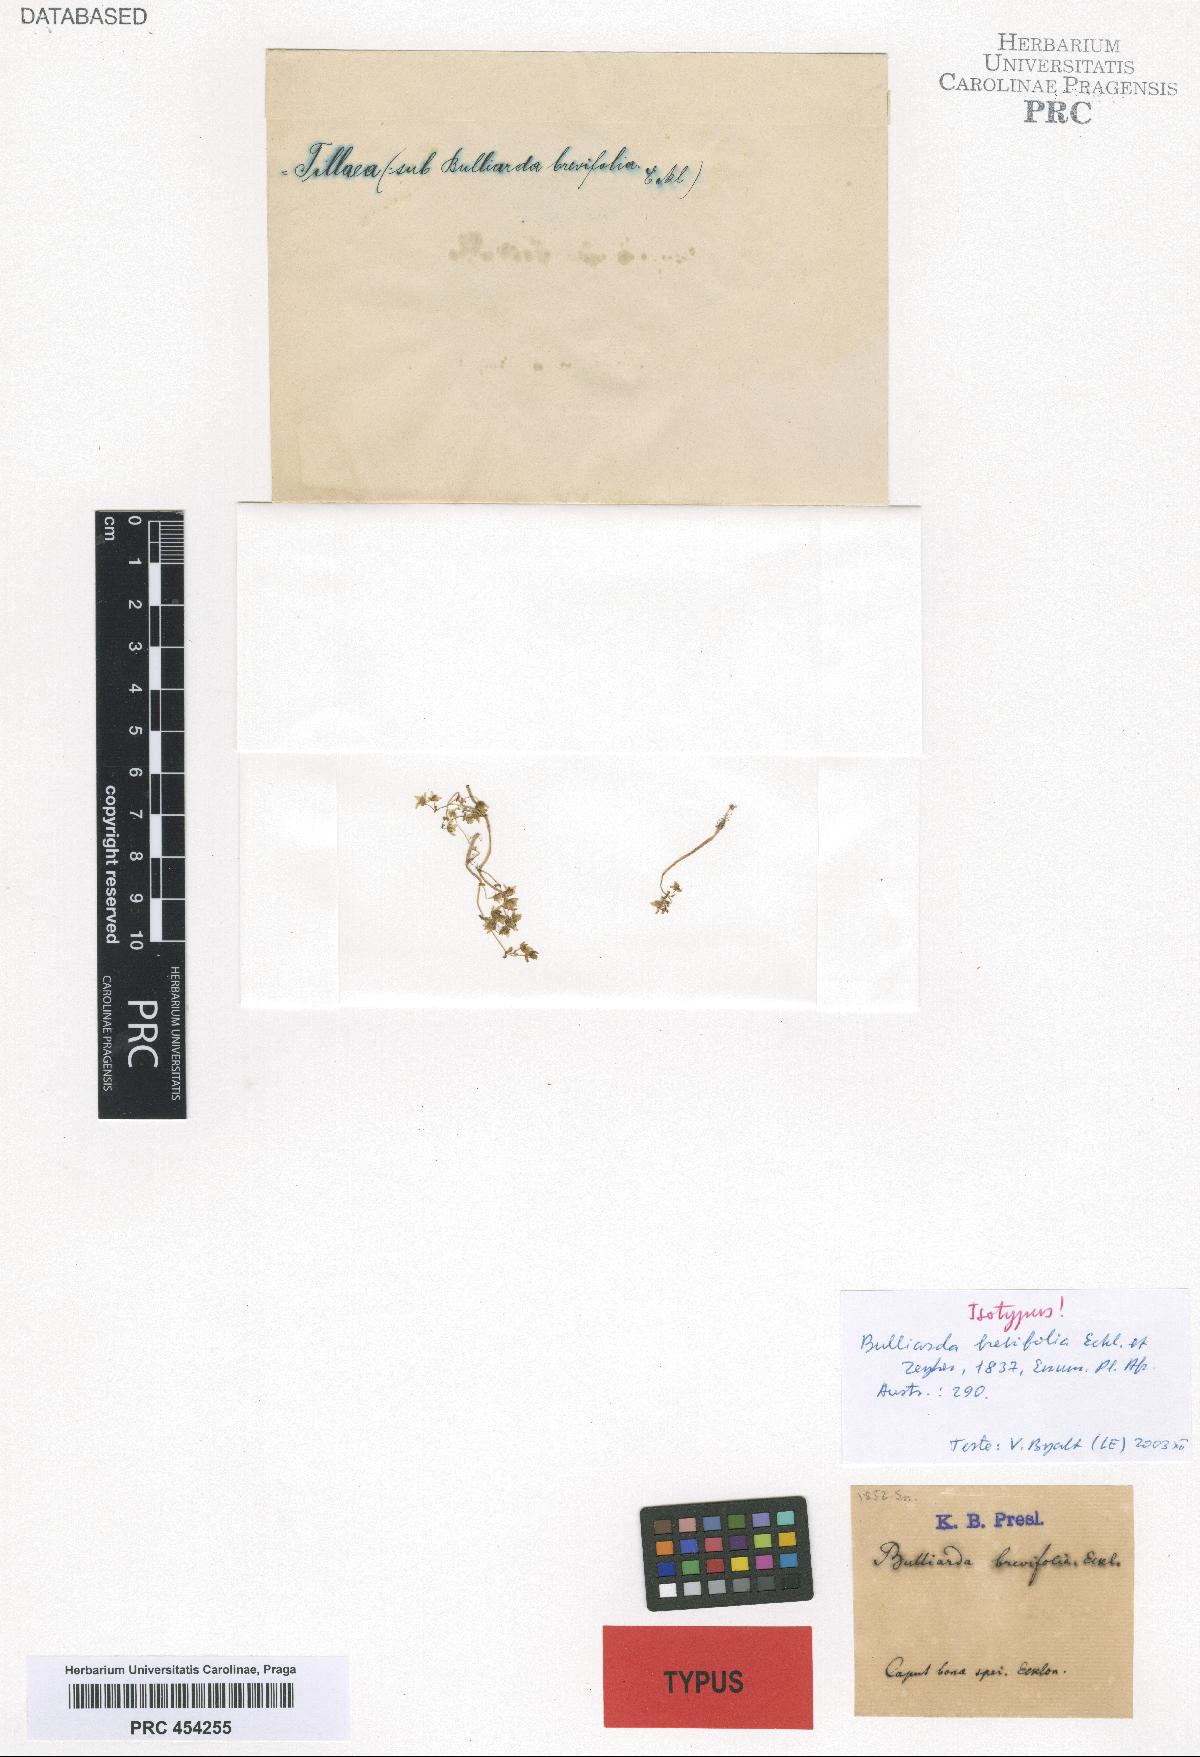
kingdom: Plantae
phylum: Tracheophyta
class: Magnoliopsida
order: Saxifragales
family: Crassulaceae
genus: Crassula
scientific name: Crassula
